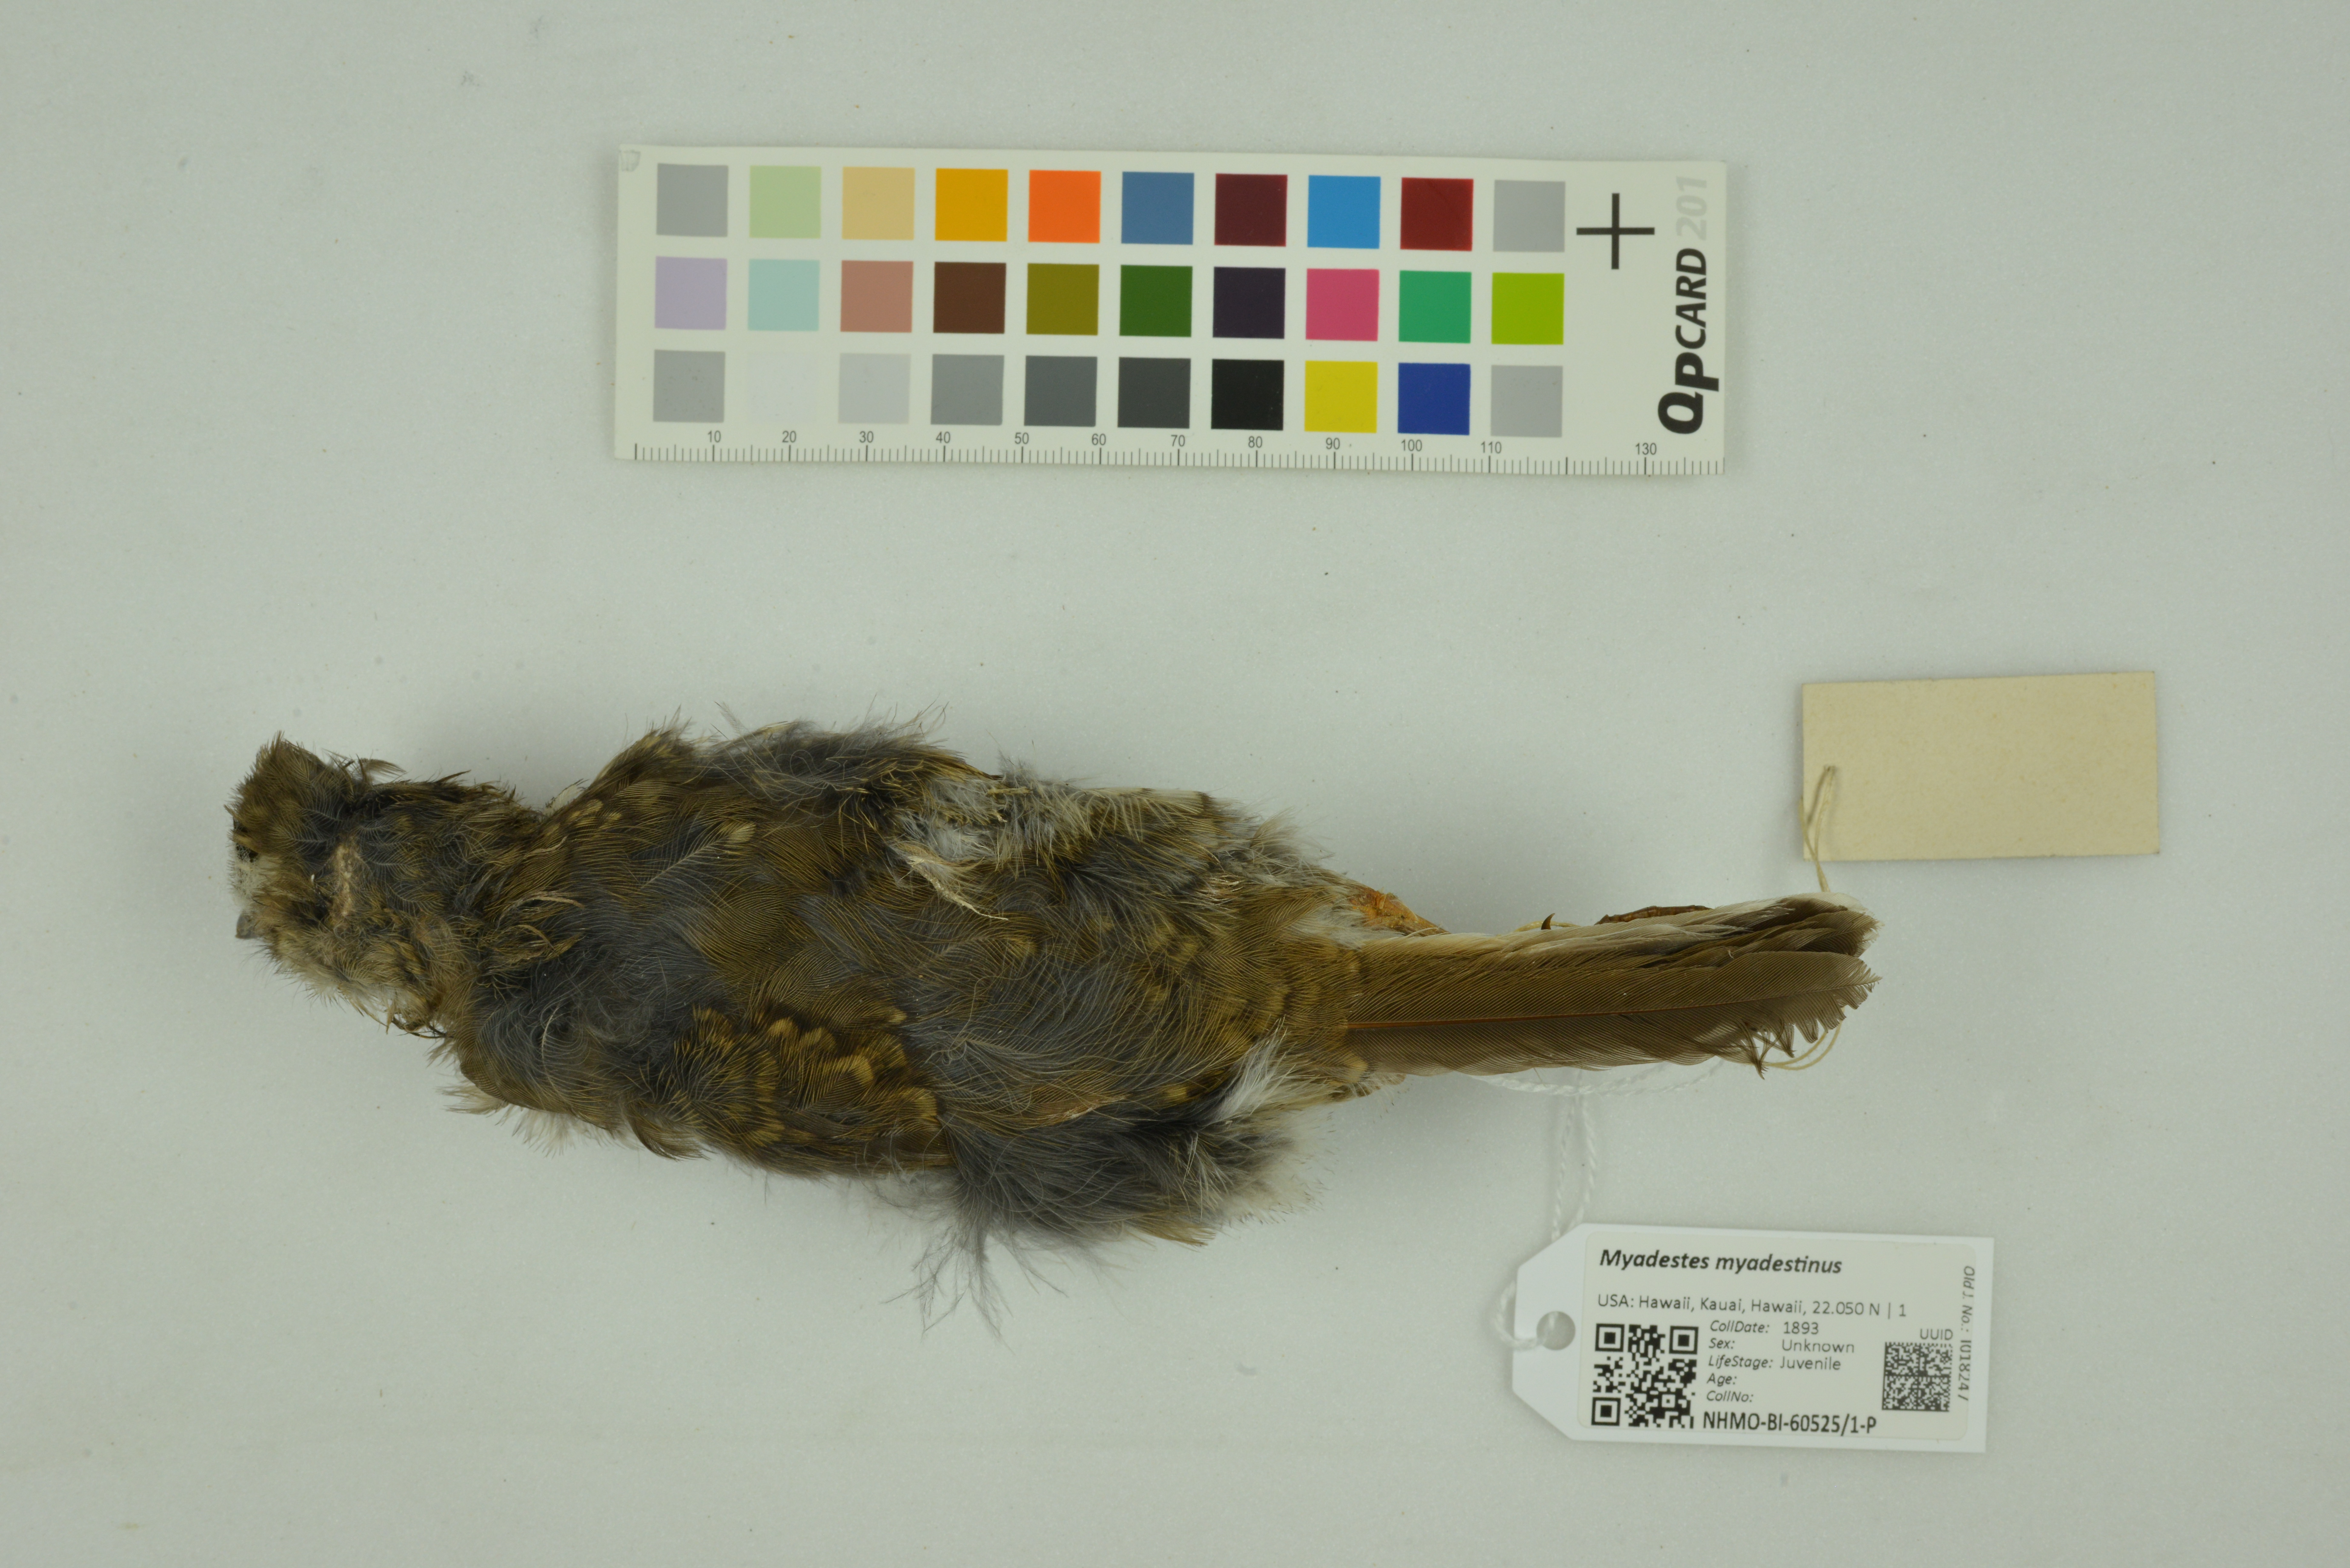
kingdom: Animalia
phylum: Chordata
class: Aves
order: Passeriformes
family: Turdidae
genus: Myadestes
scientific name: Myadestes myadestinus
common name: Kamao
